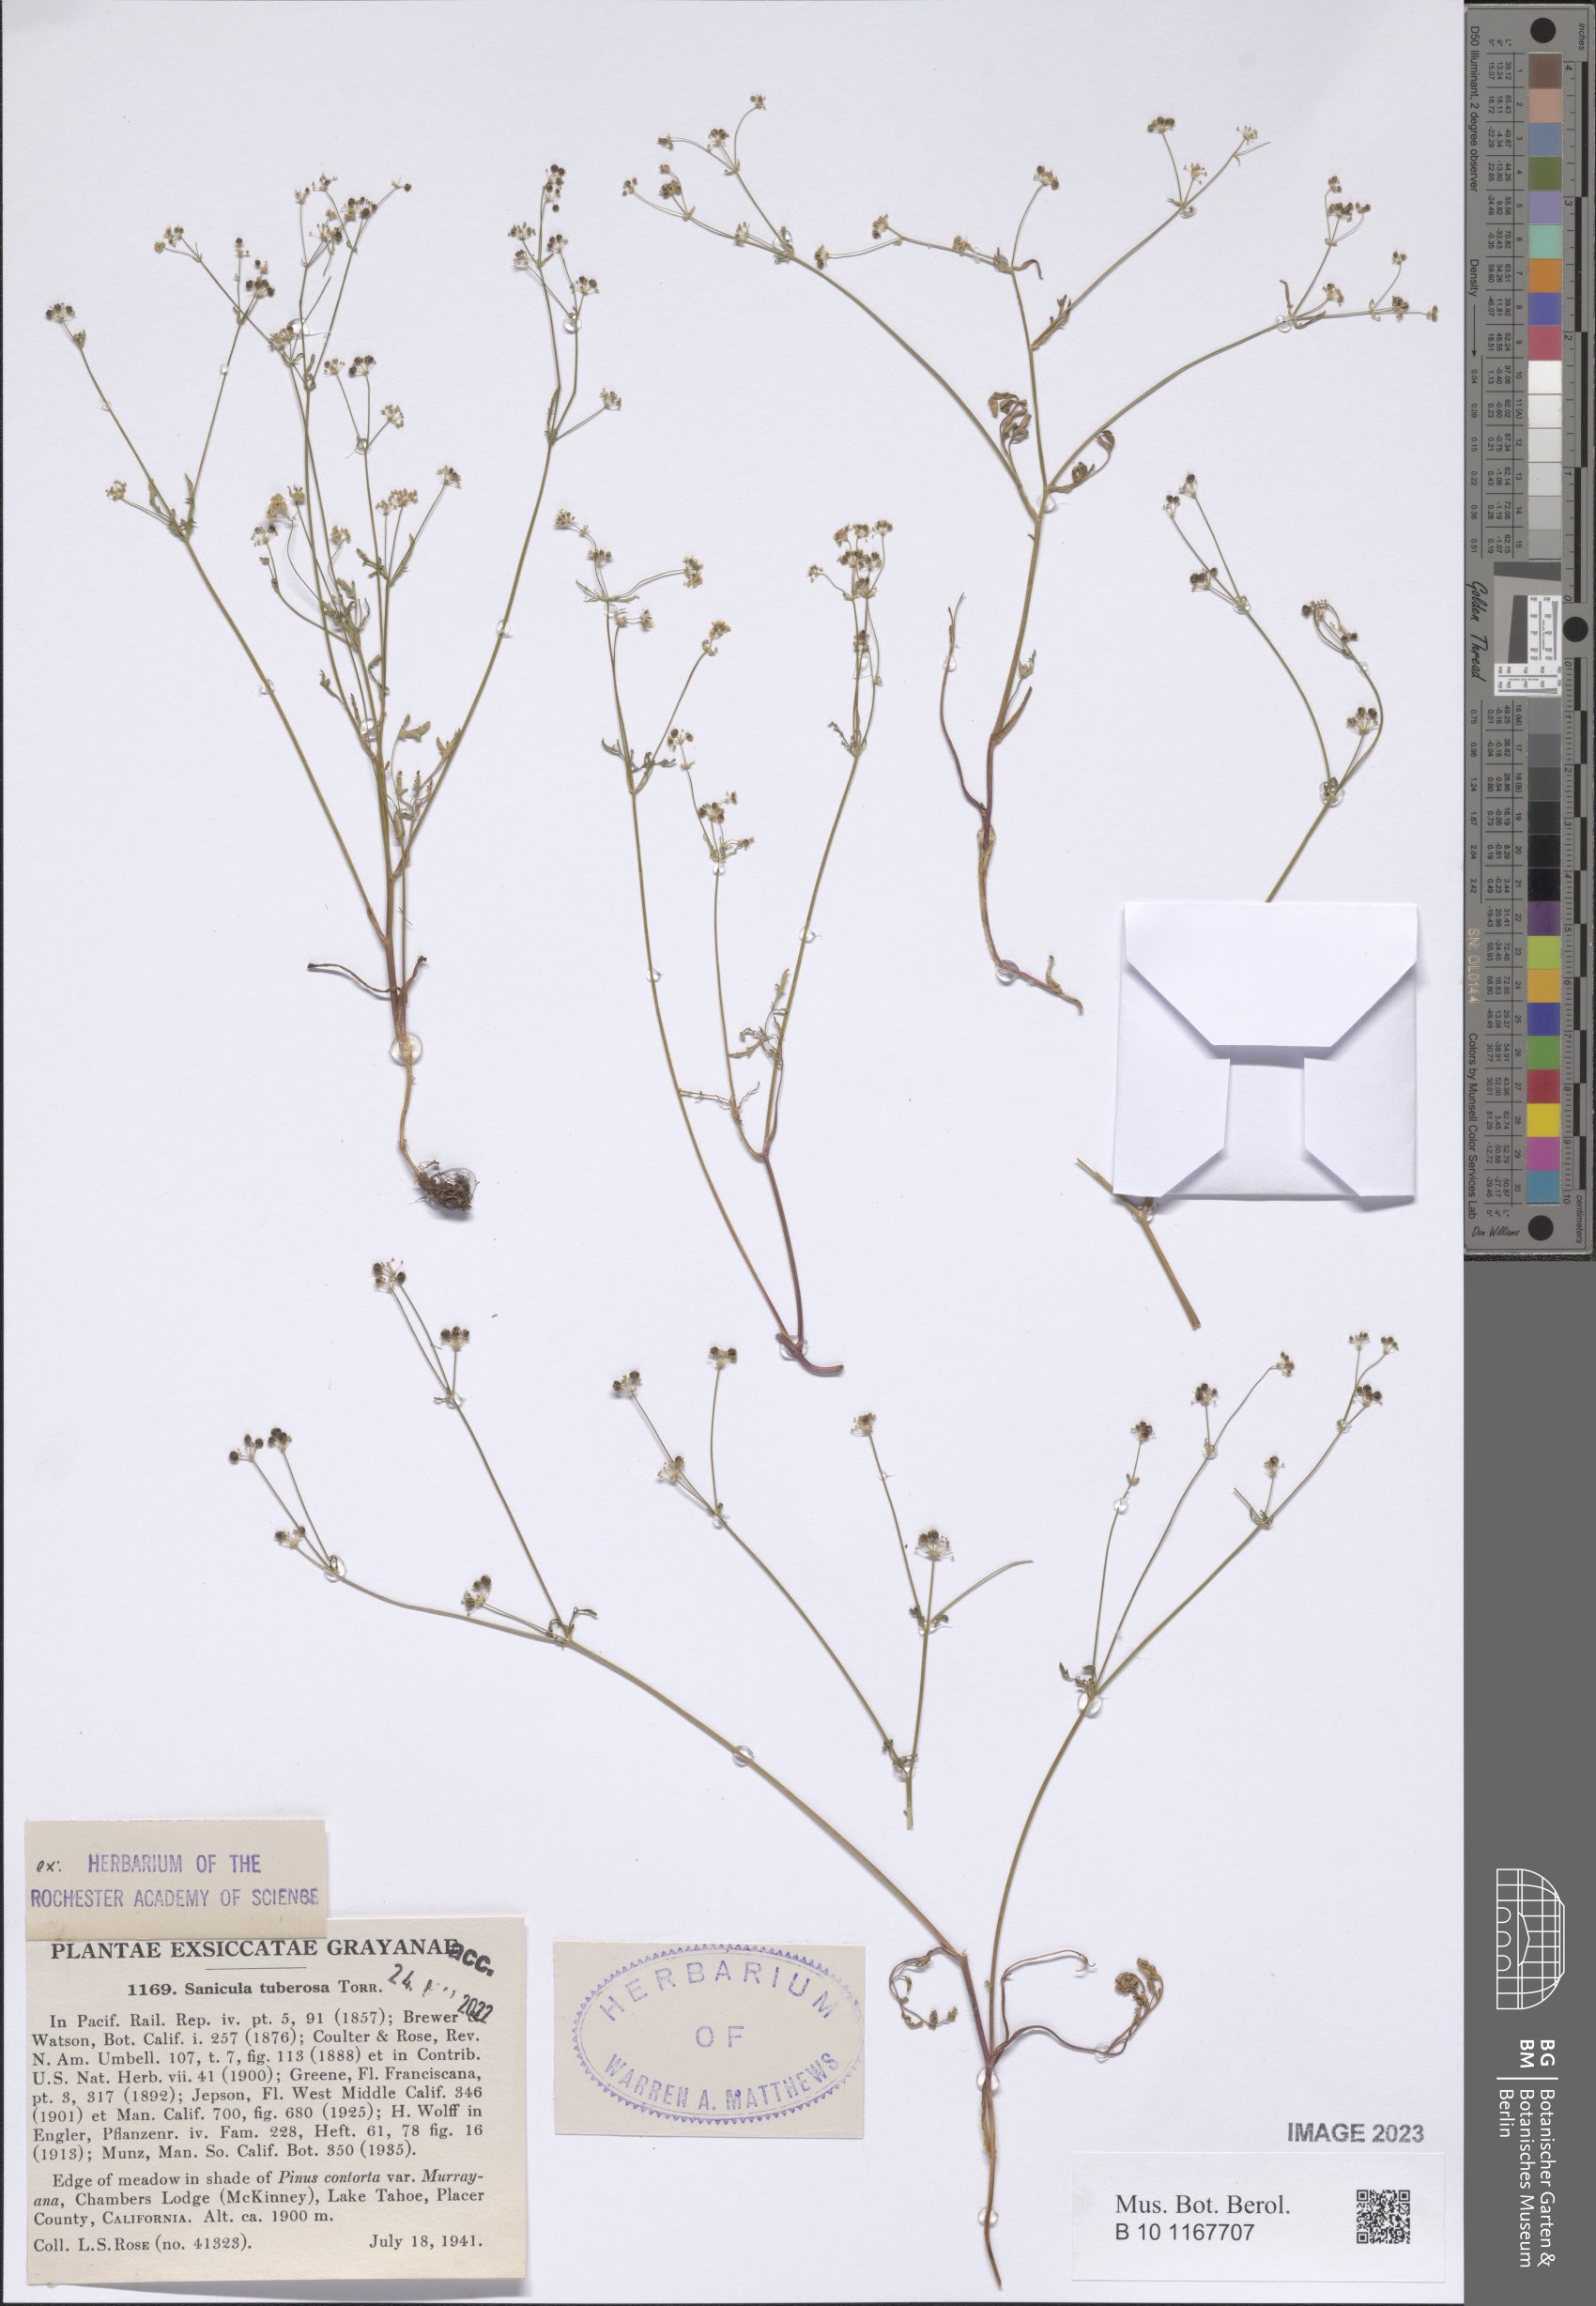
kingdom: Plantae
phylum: Tracheophyta
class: Magnoliopsida
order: Apiales
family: Apiaceae
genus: Sanicula
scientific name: Sanicula tuberosa
